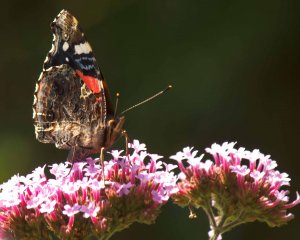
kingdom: Animalia
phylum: Arthropoda
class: Insecta
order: Lepidoptera
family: Nymphalidae
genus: Vanessa
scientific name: Vanessa atalanta
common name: Red Admiral
